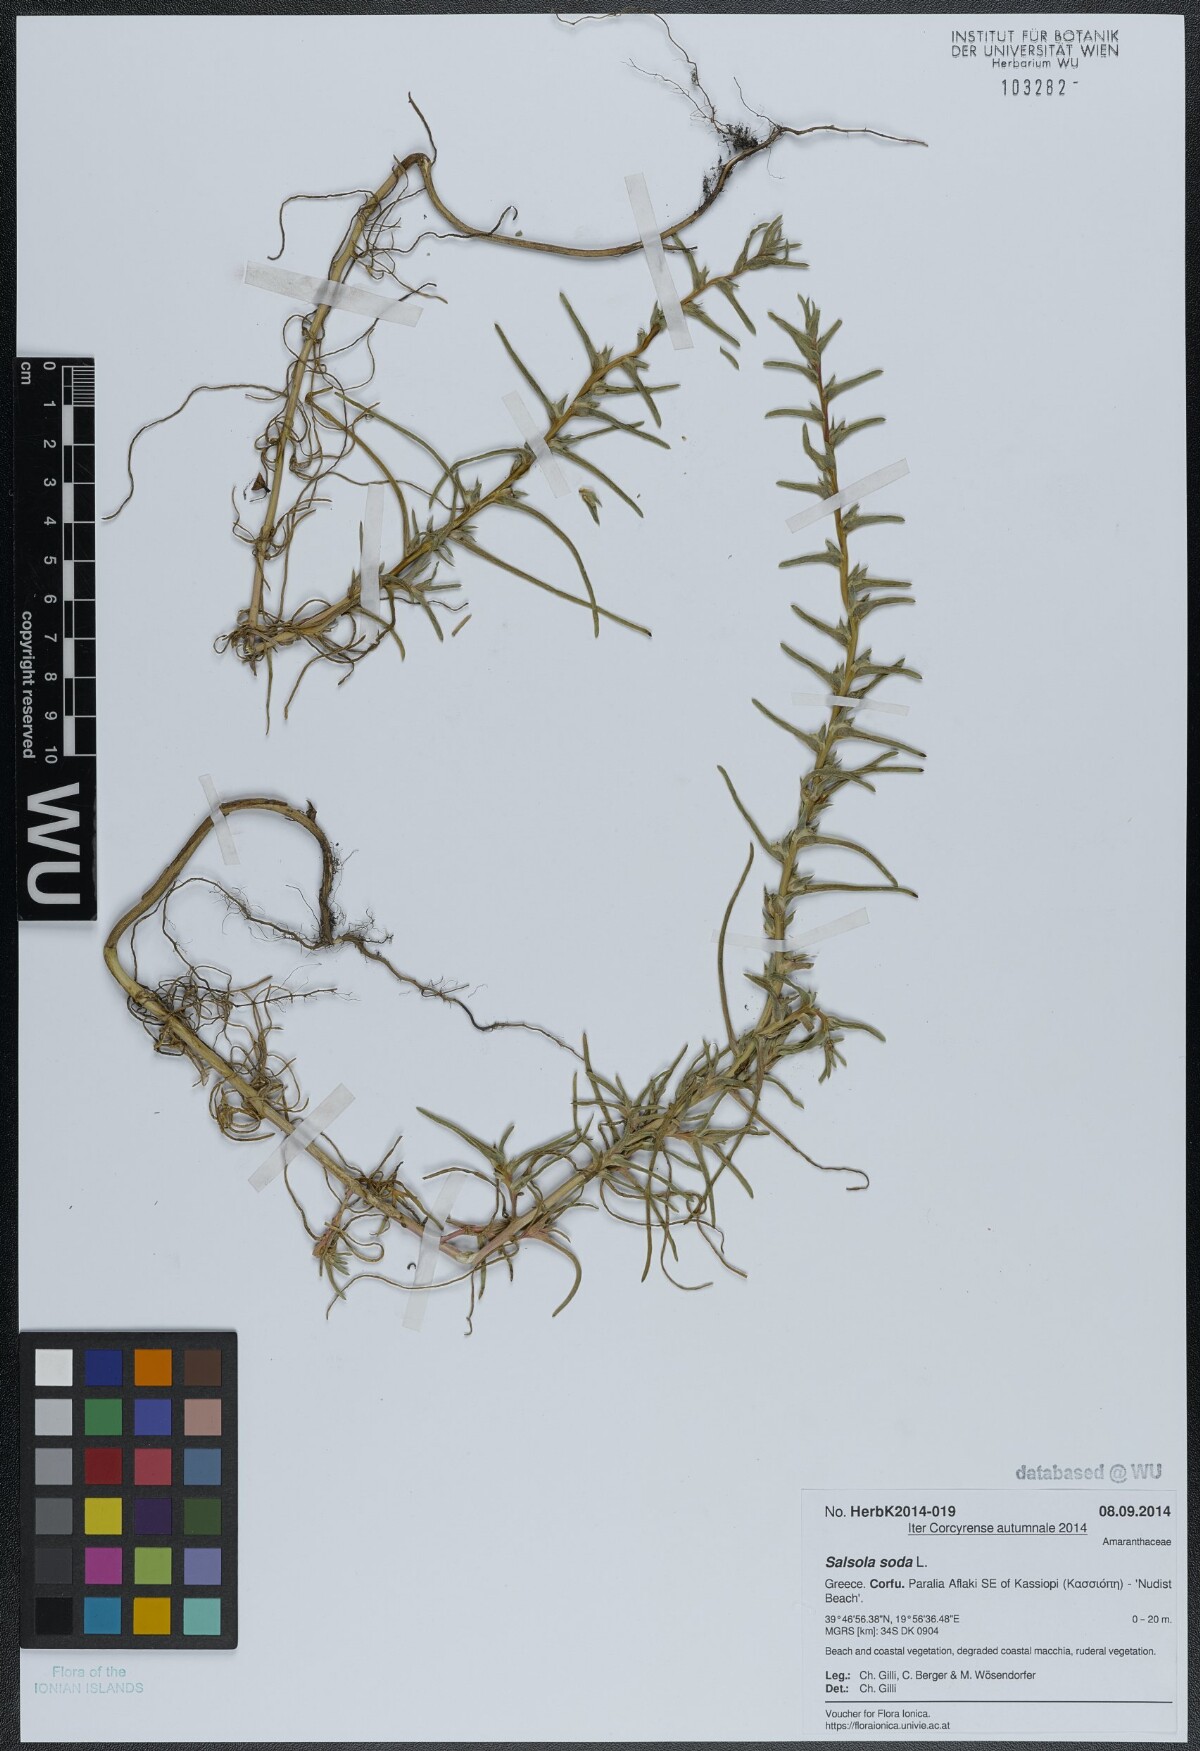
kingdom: Plantae
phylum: Tracheophyta
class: Magnoliopsida
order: Caryophyllales
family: Amaranthaceae
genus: Soda
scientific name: Soda inermis
